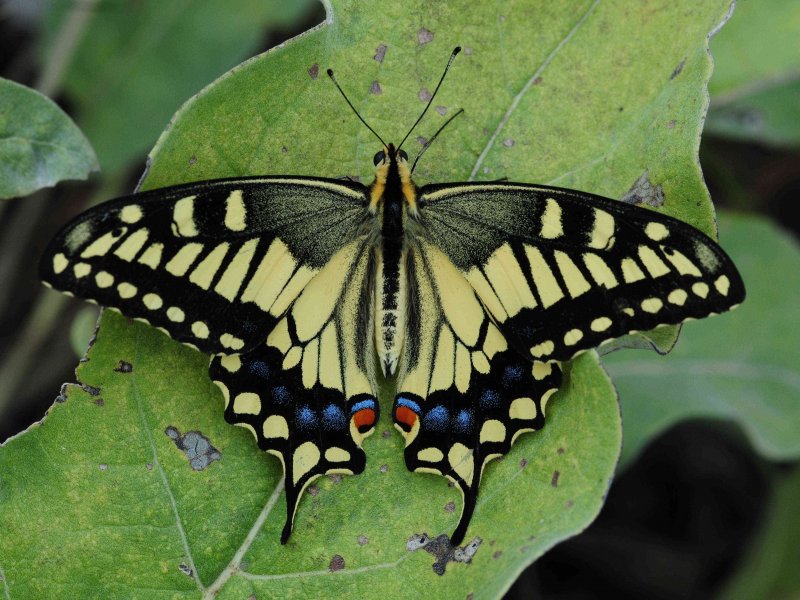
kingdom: Animalia
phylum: Arthropoda
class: Insecta
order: Lepidoptera
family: Papilionidae
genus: Papilio
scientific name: Papilio machaon
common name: Old World Swallowtail
